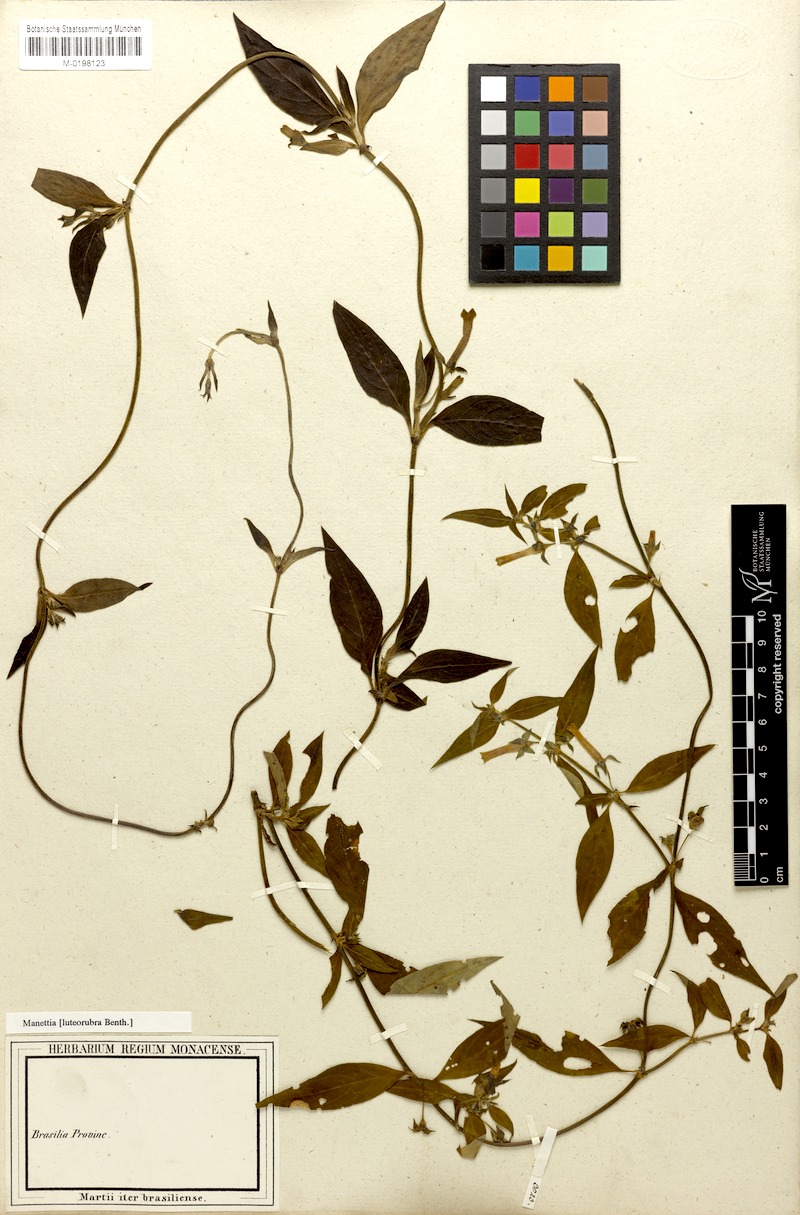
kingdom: Plantae
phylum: Tracheophyta
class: Magnoliopsida
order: Gentianales
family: Rubiaceae
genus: Manettia
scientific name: Manettia luteorubra
